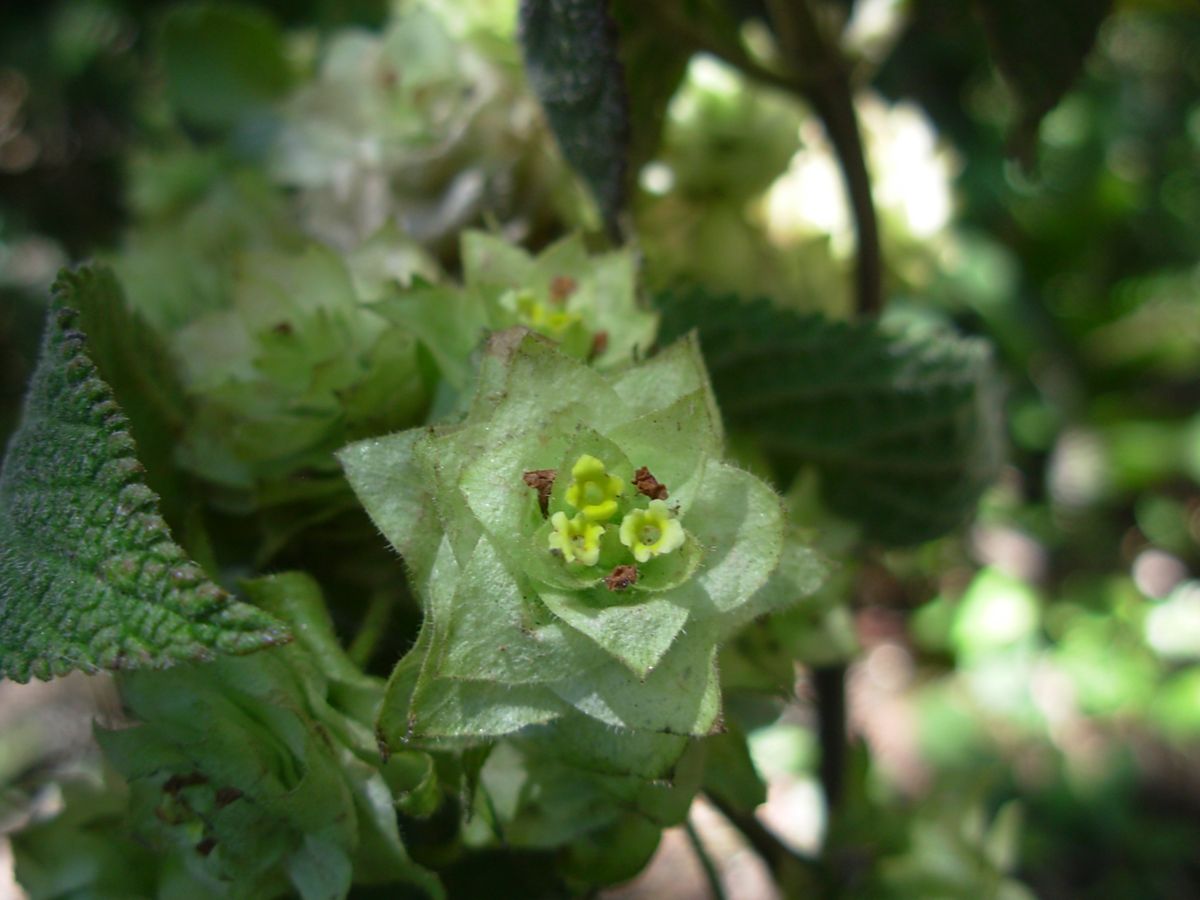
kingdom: Plantae
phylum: Tracheophyta
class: Magnoliopsida
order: Lamiales
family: Verbenaceae
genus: Lippia
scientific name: Lippia chiapasensis
